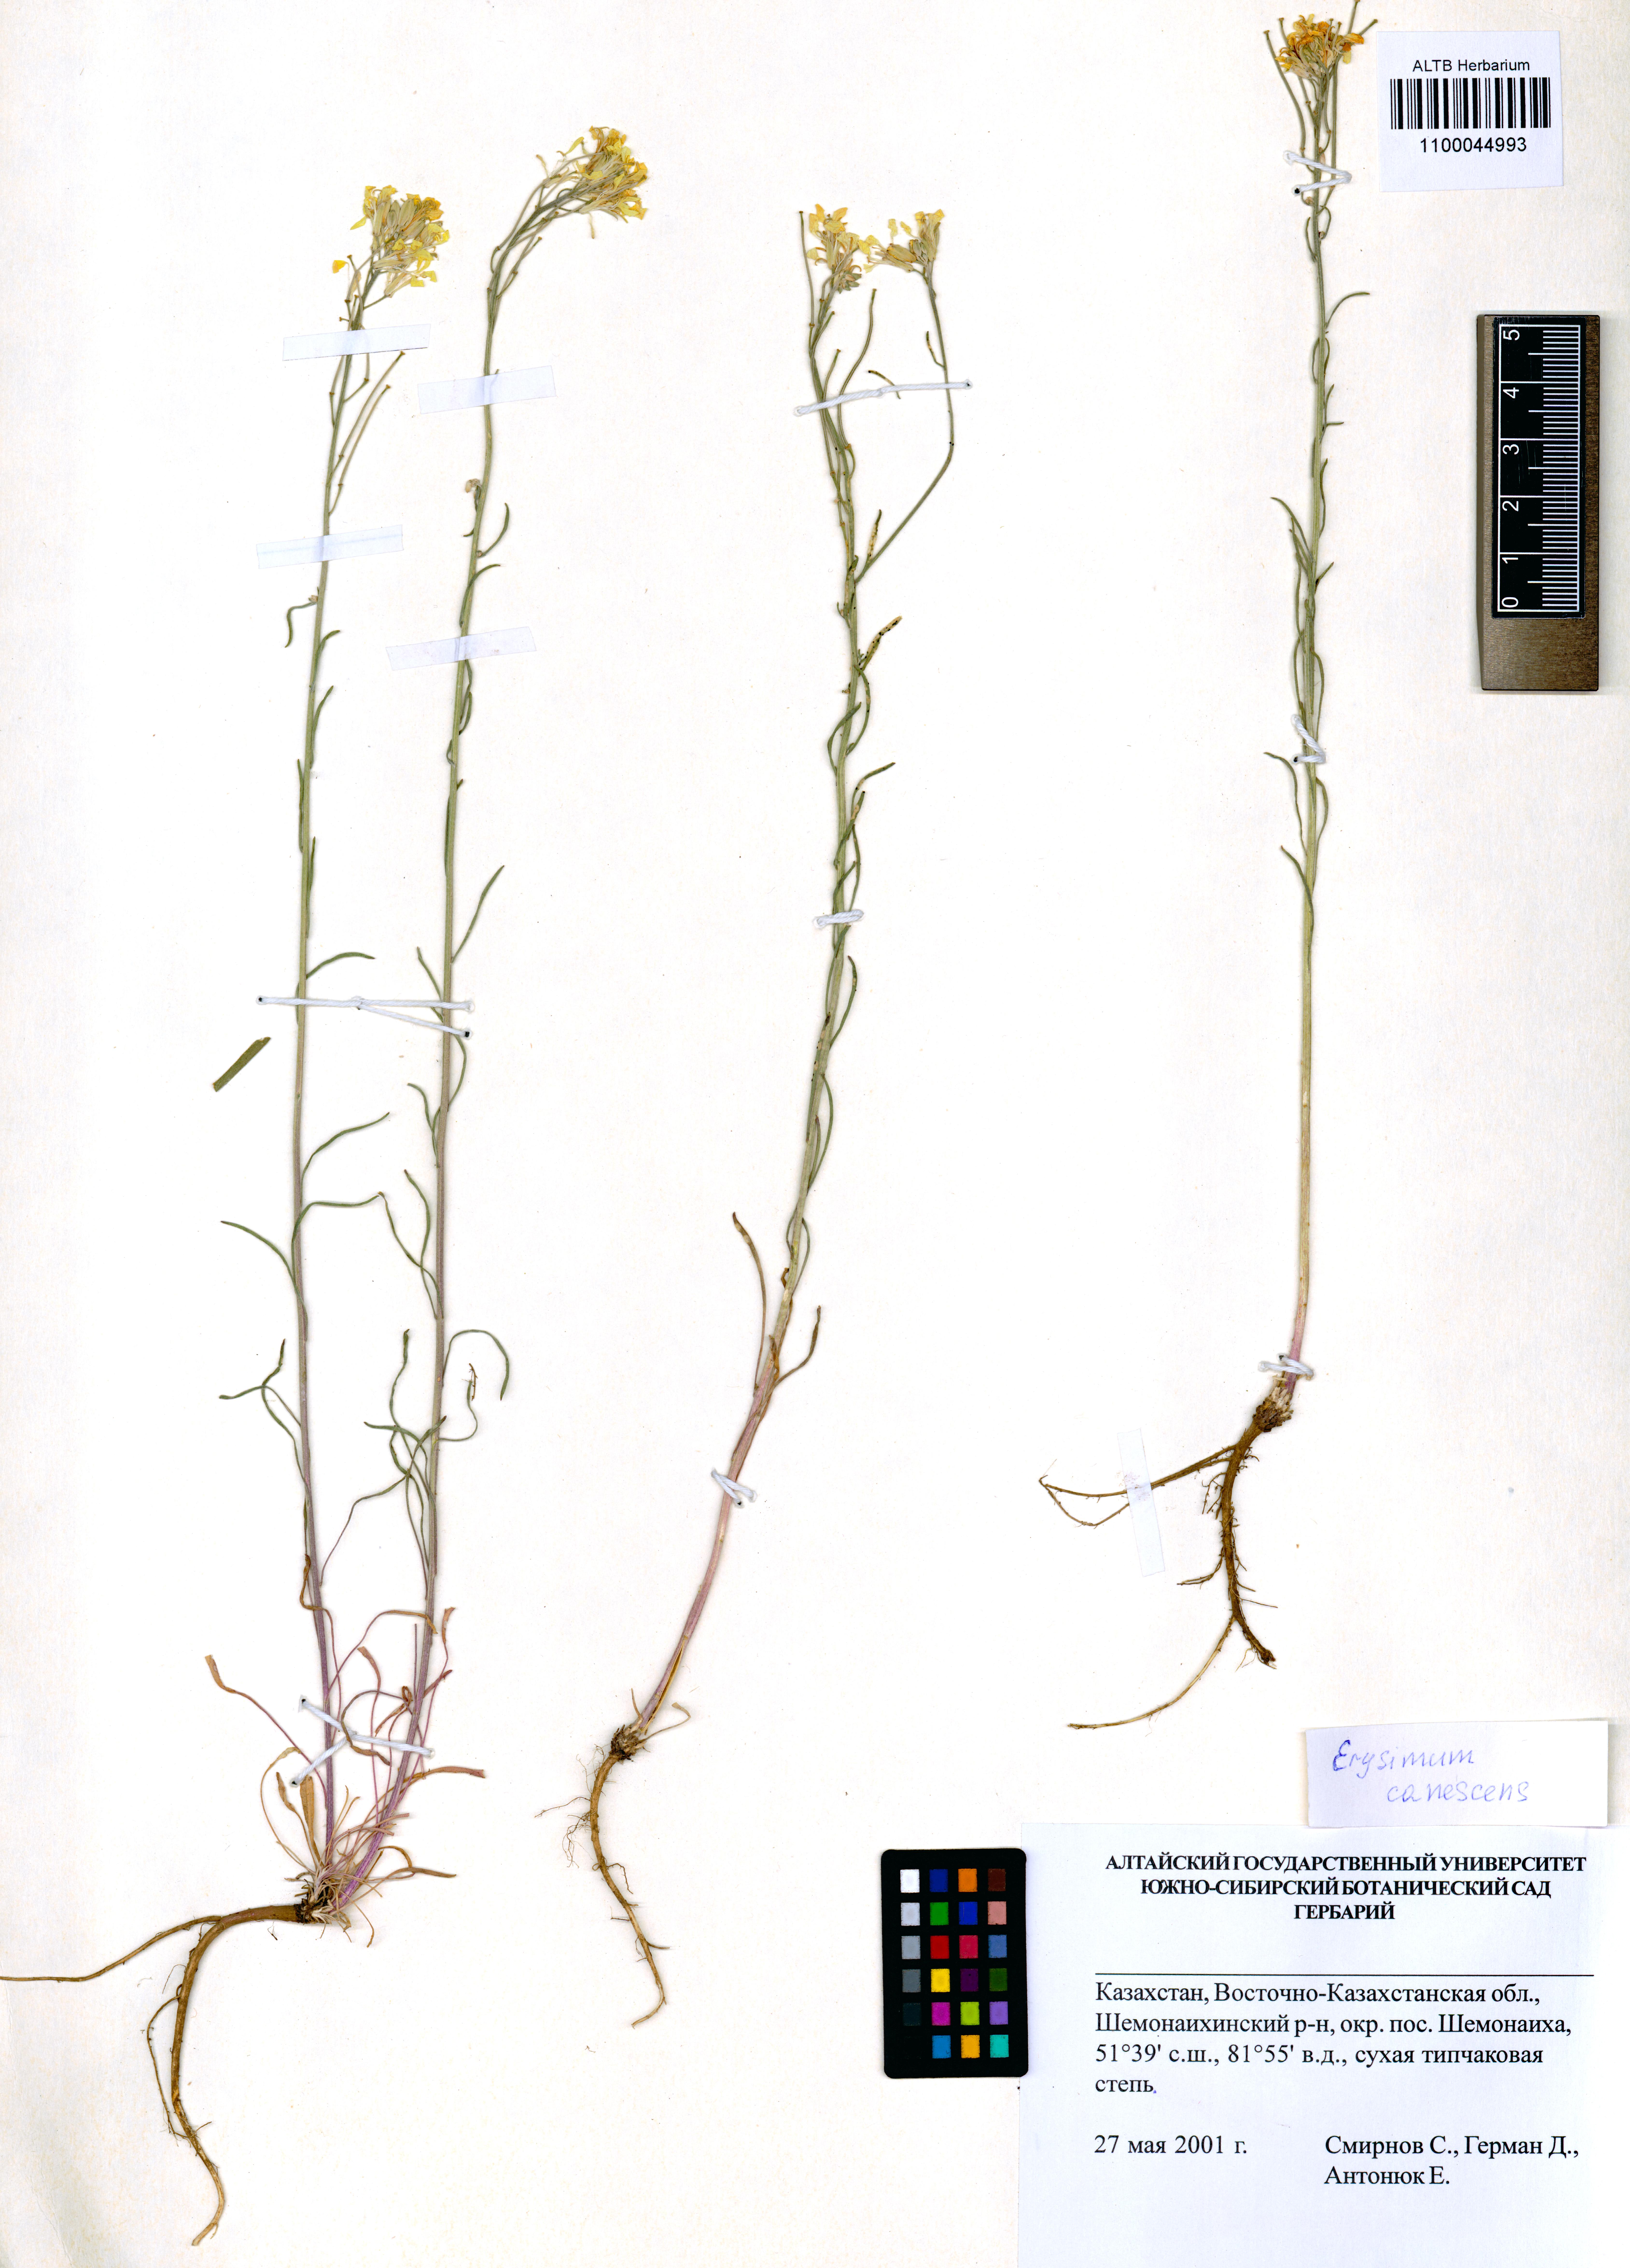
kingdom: Plantae
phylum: Tracheophyta
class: Magnoliopsida
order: Brassicales
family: Brassicaceae
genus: Erysimum
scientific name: Erysimum canescens
